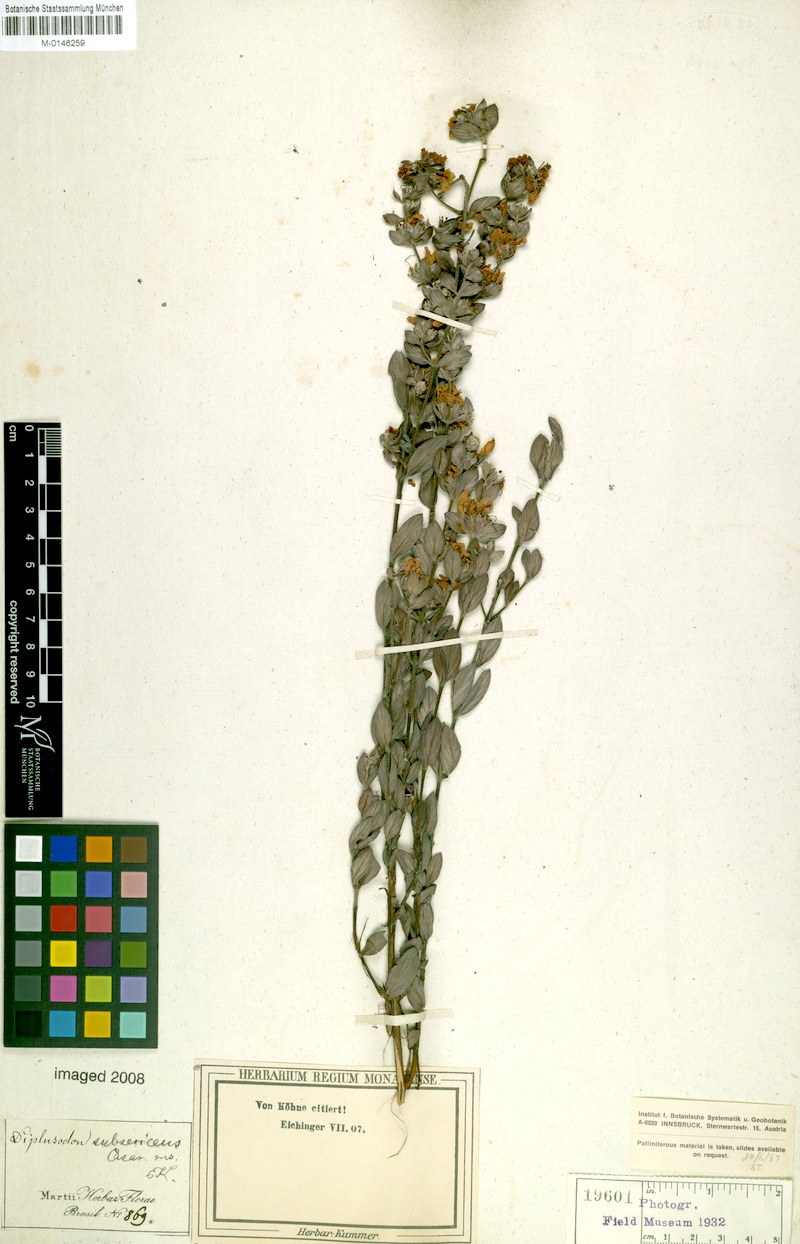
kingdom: Plantae
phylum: Tracheophyta
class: Magnoliopsida
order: Myrtales
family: Lythraceae
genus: Diplusodon
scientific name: Diplusodon subsericeus
